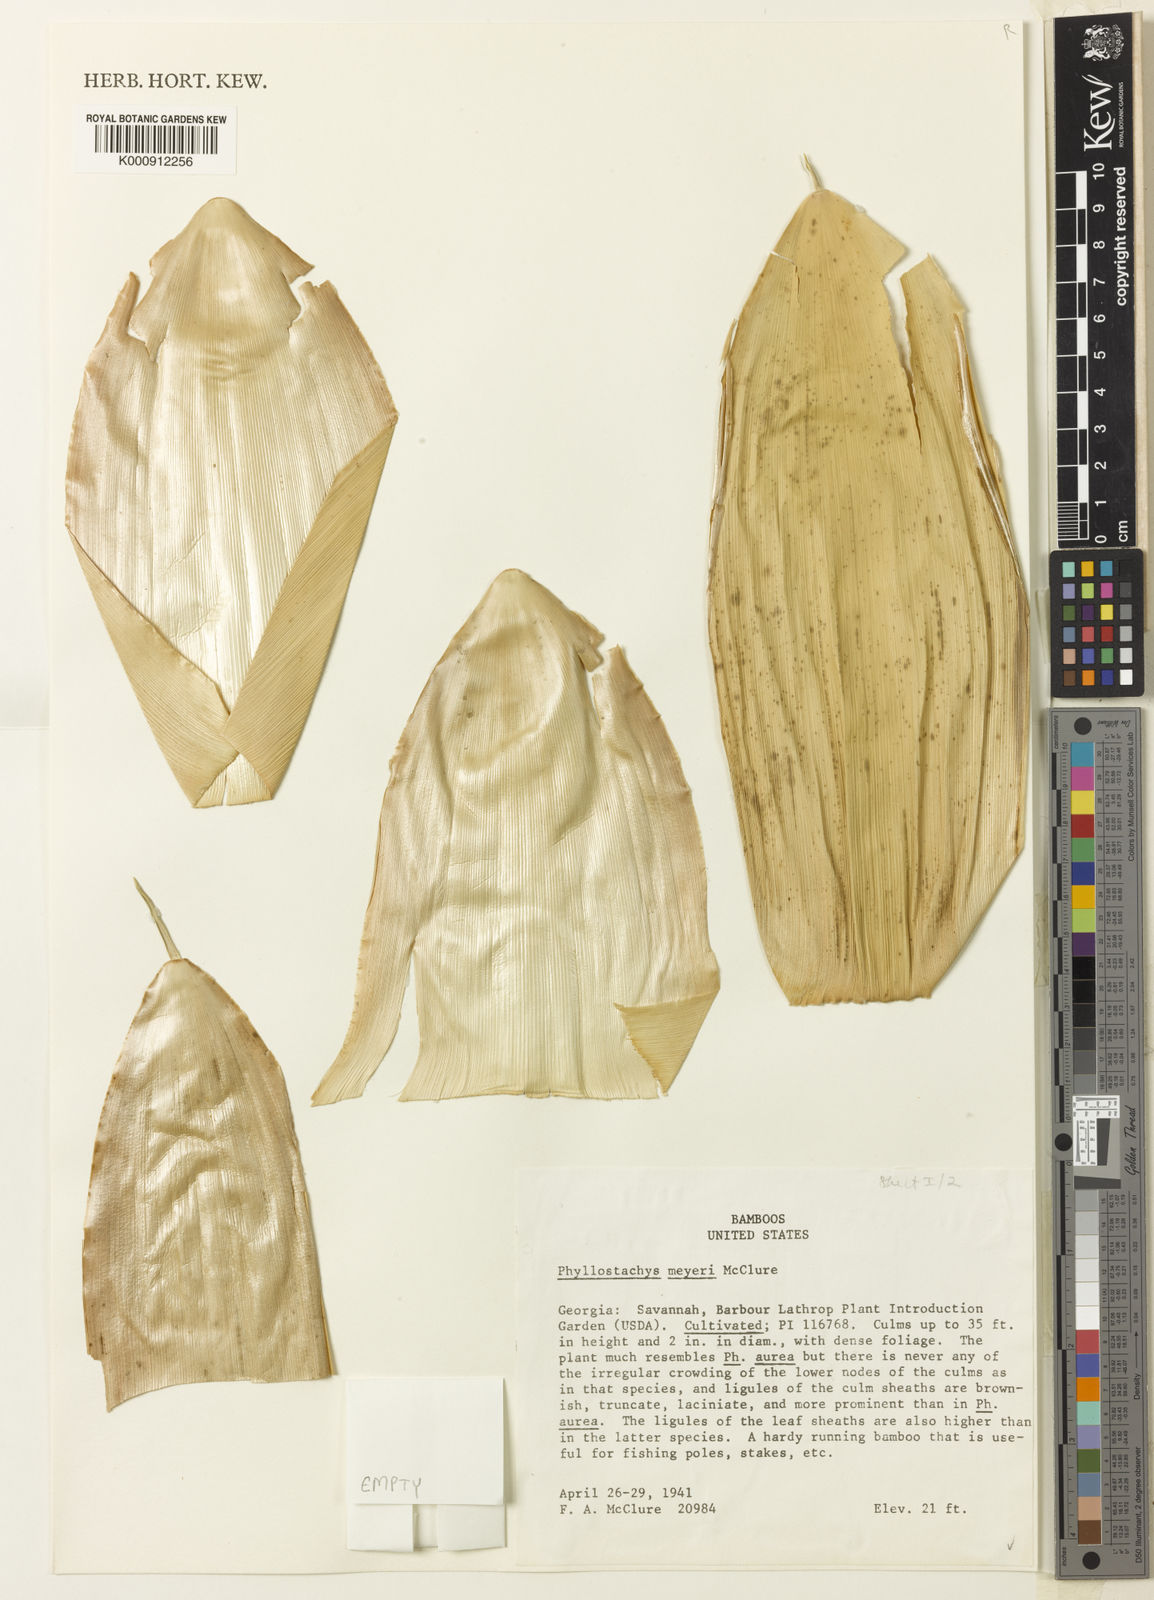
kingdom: Plantae
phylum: Tracheophyta
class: Liliopsida
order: Poales
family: Poaceae
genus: Phyllostachys
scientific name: Phyllostachys meyeri
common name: Meyer's bamboo
